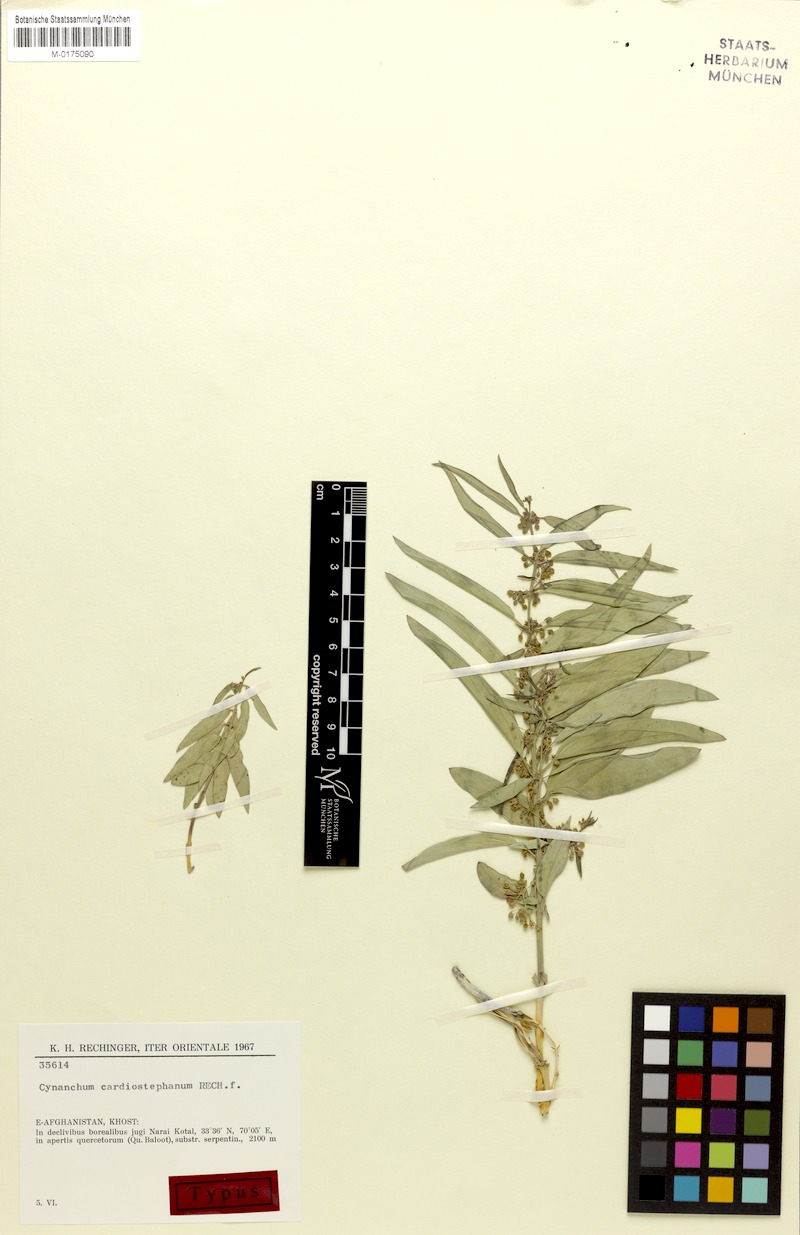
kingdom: Plantae
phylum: Tracheophyta
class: Magnoliopsida
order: Gentianales
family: Apocynaceae
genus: Vincetoxicum
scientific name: Vincetoxicum cardiostephanum
